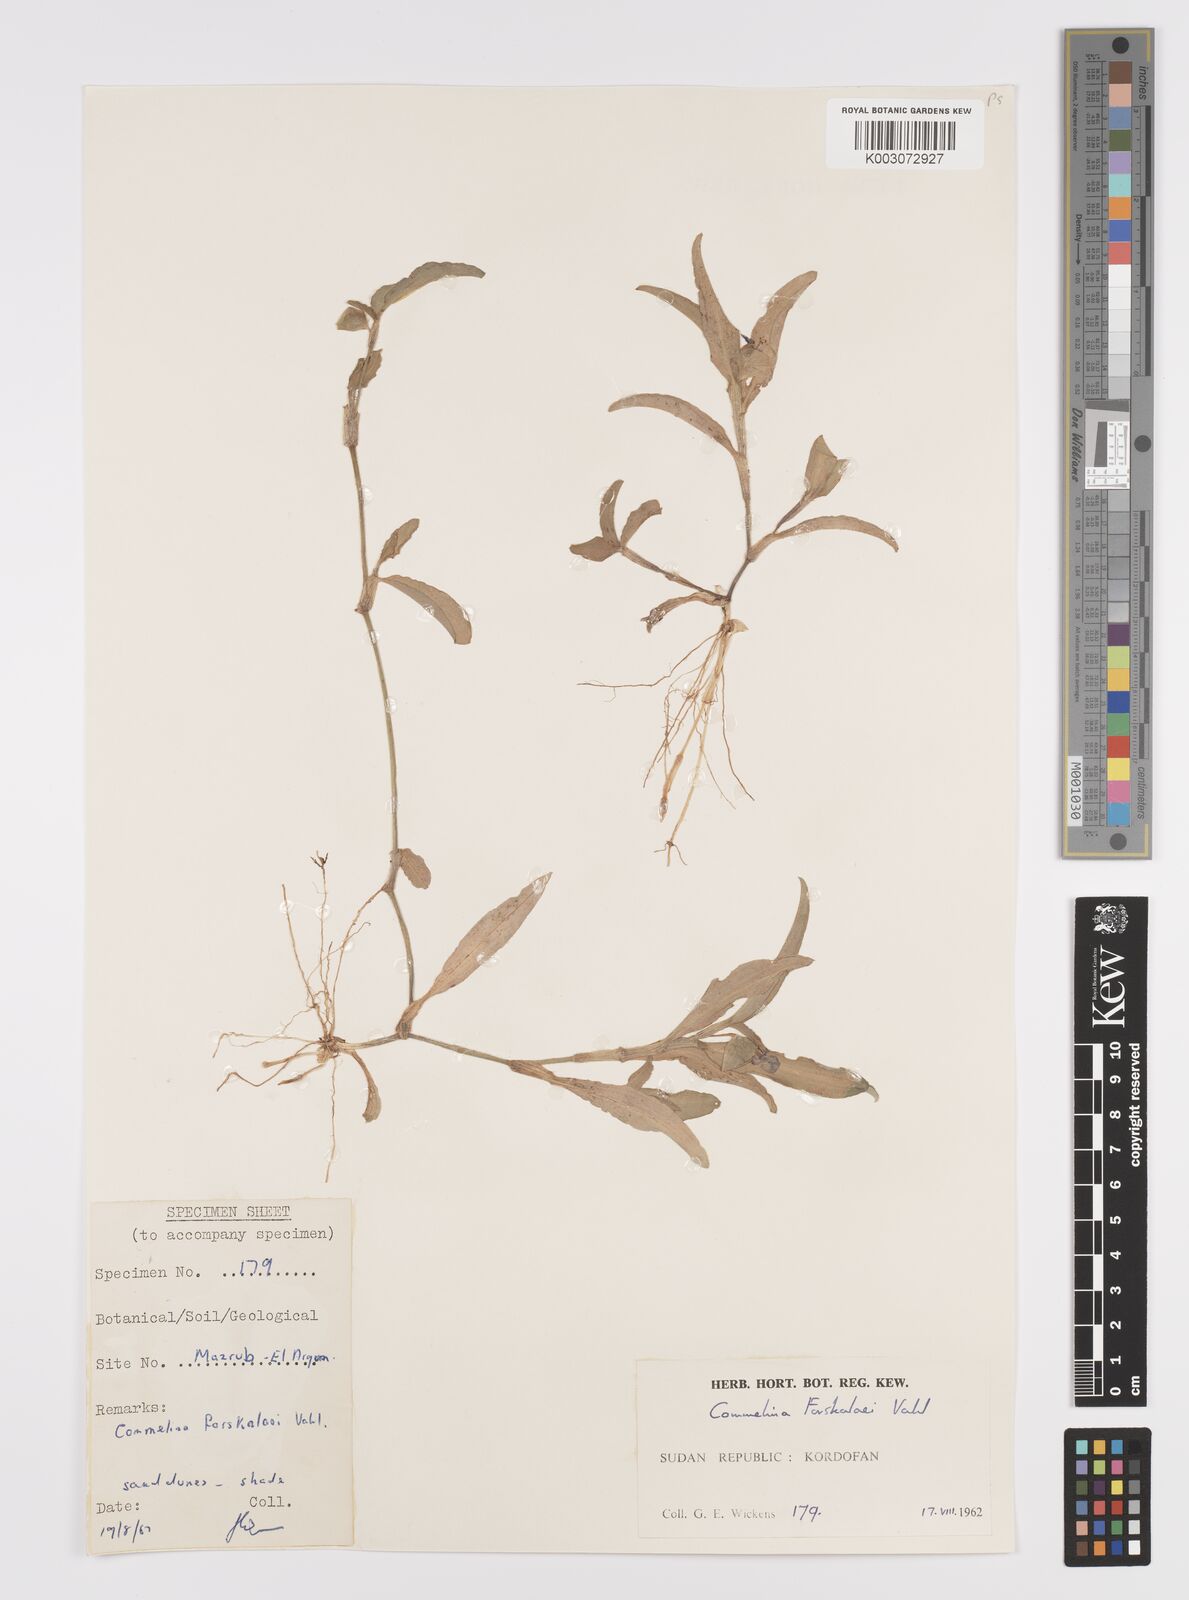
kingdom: Plantae
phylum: Tracheophyta
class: Liliopsida
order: Commelinales
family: Commelinaceae
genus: Commelina
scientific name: Commelina forskaolii
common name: Rat's ear
